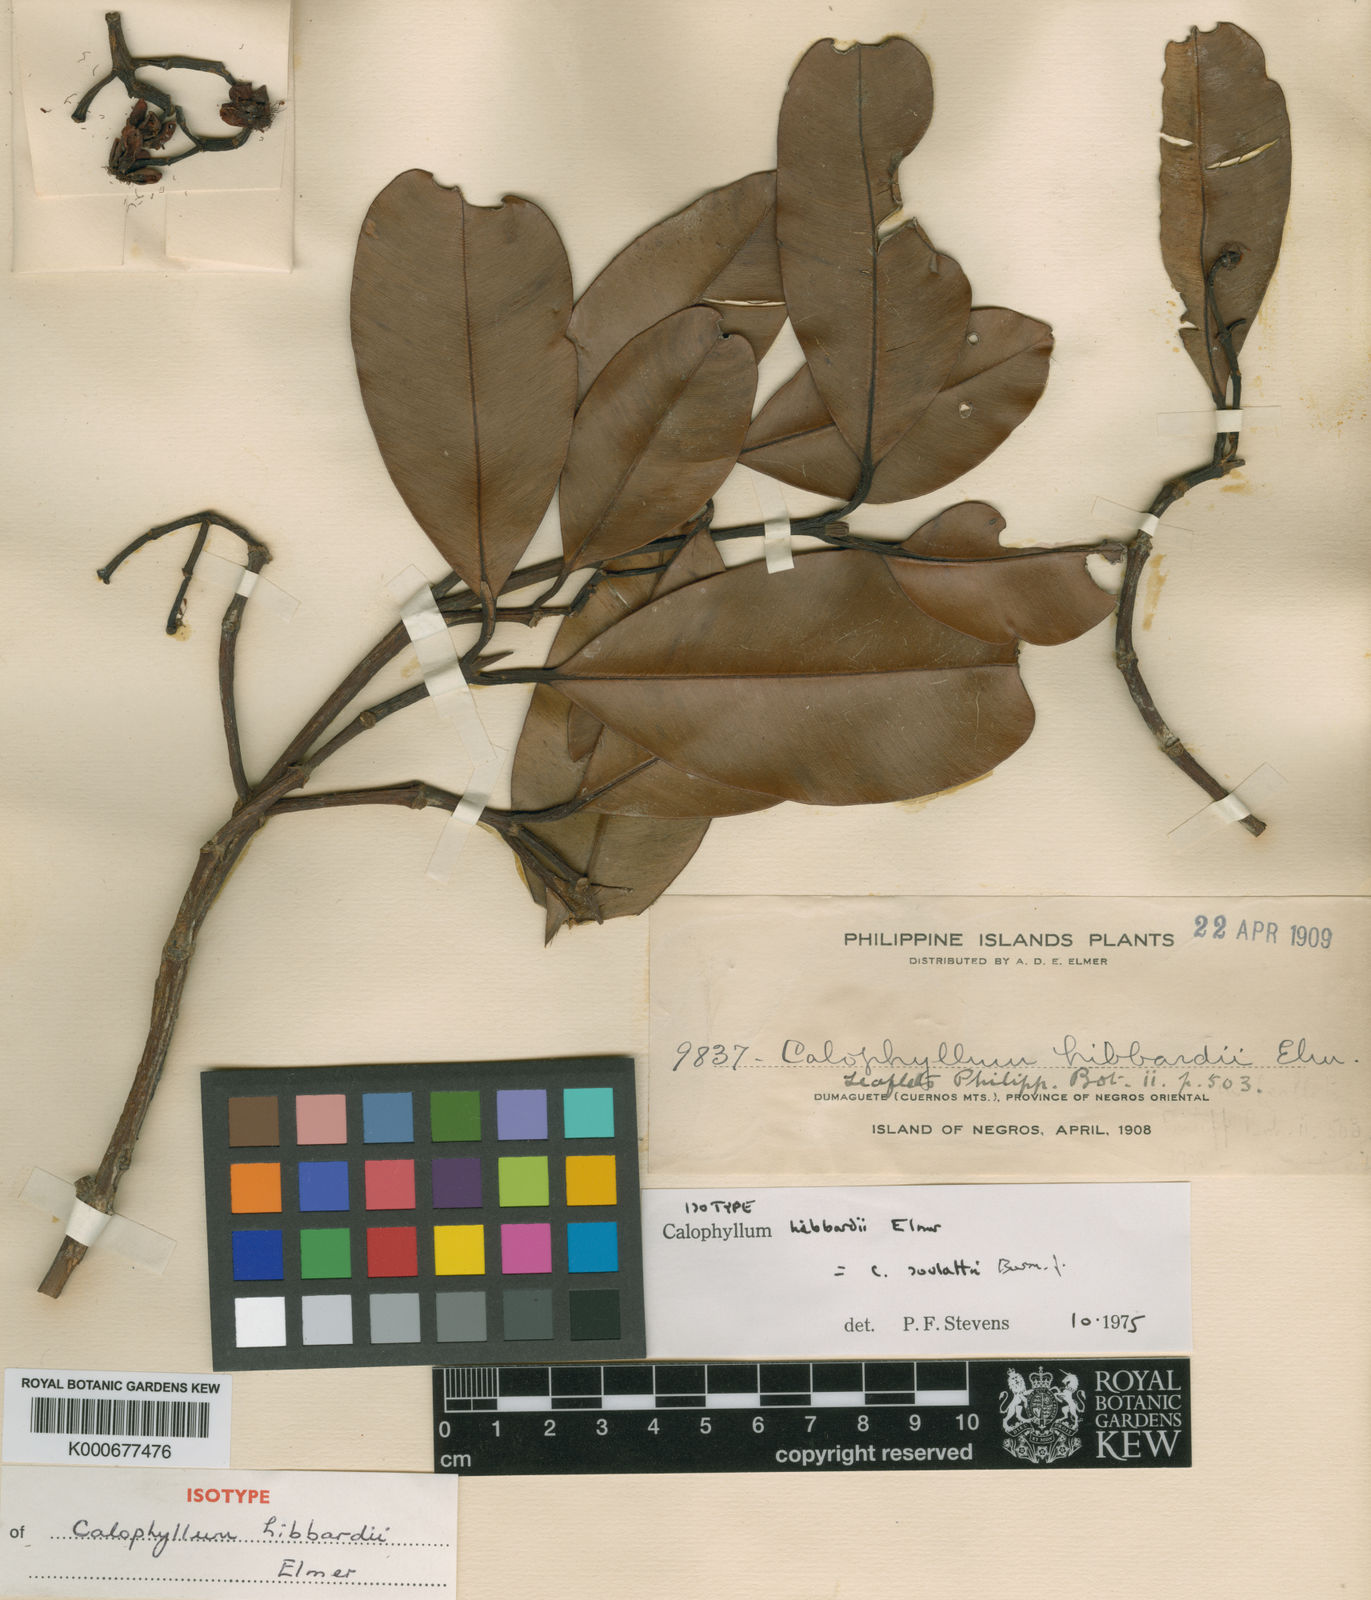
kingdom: Plantae
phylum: Tracheophyta
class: Magnoliopsida
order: Malpighiales
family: Calophyllaceae
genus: Calophyllum
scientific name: Calophyllum soulattri
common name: Bitangoor boonot
